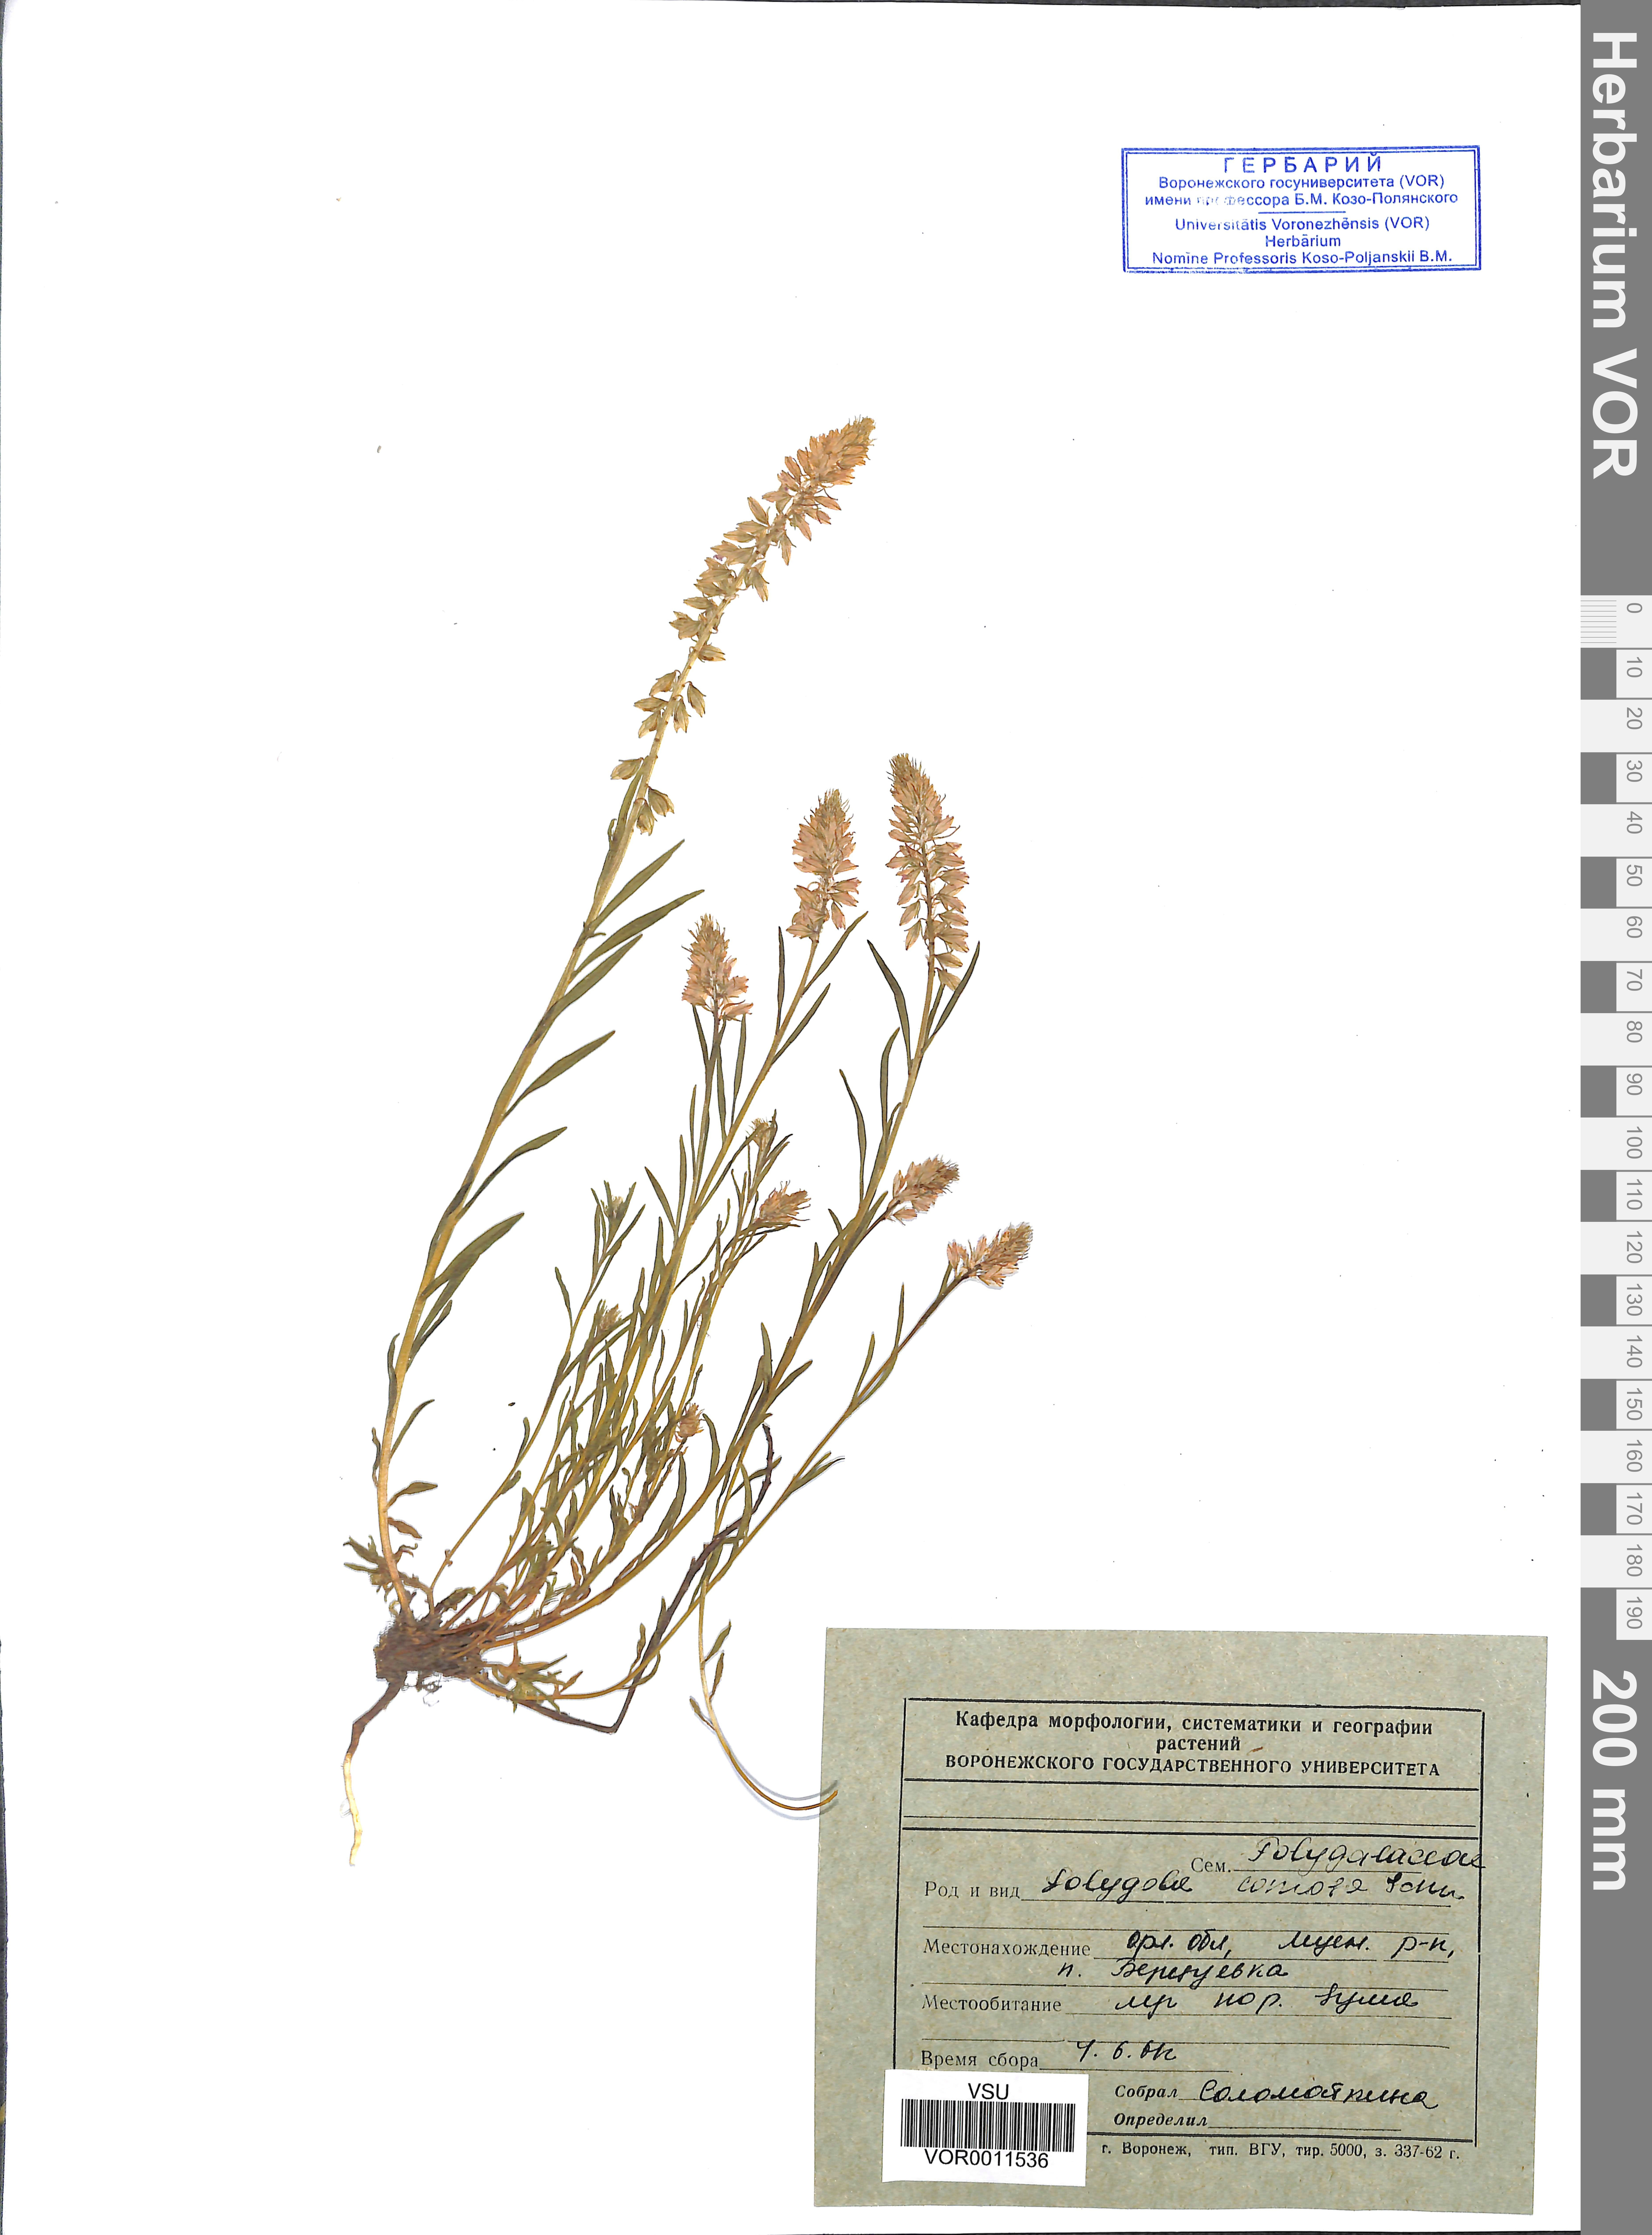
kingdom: Plantae
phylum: Tracheophyta
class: Magnoliopsida
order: Fabales
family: Polygalaceae
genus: Polygala
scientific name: Polygala comosa
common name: Tufted milkwort
